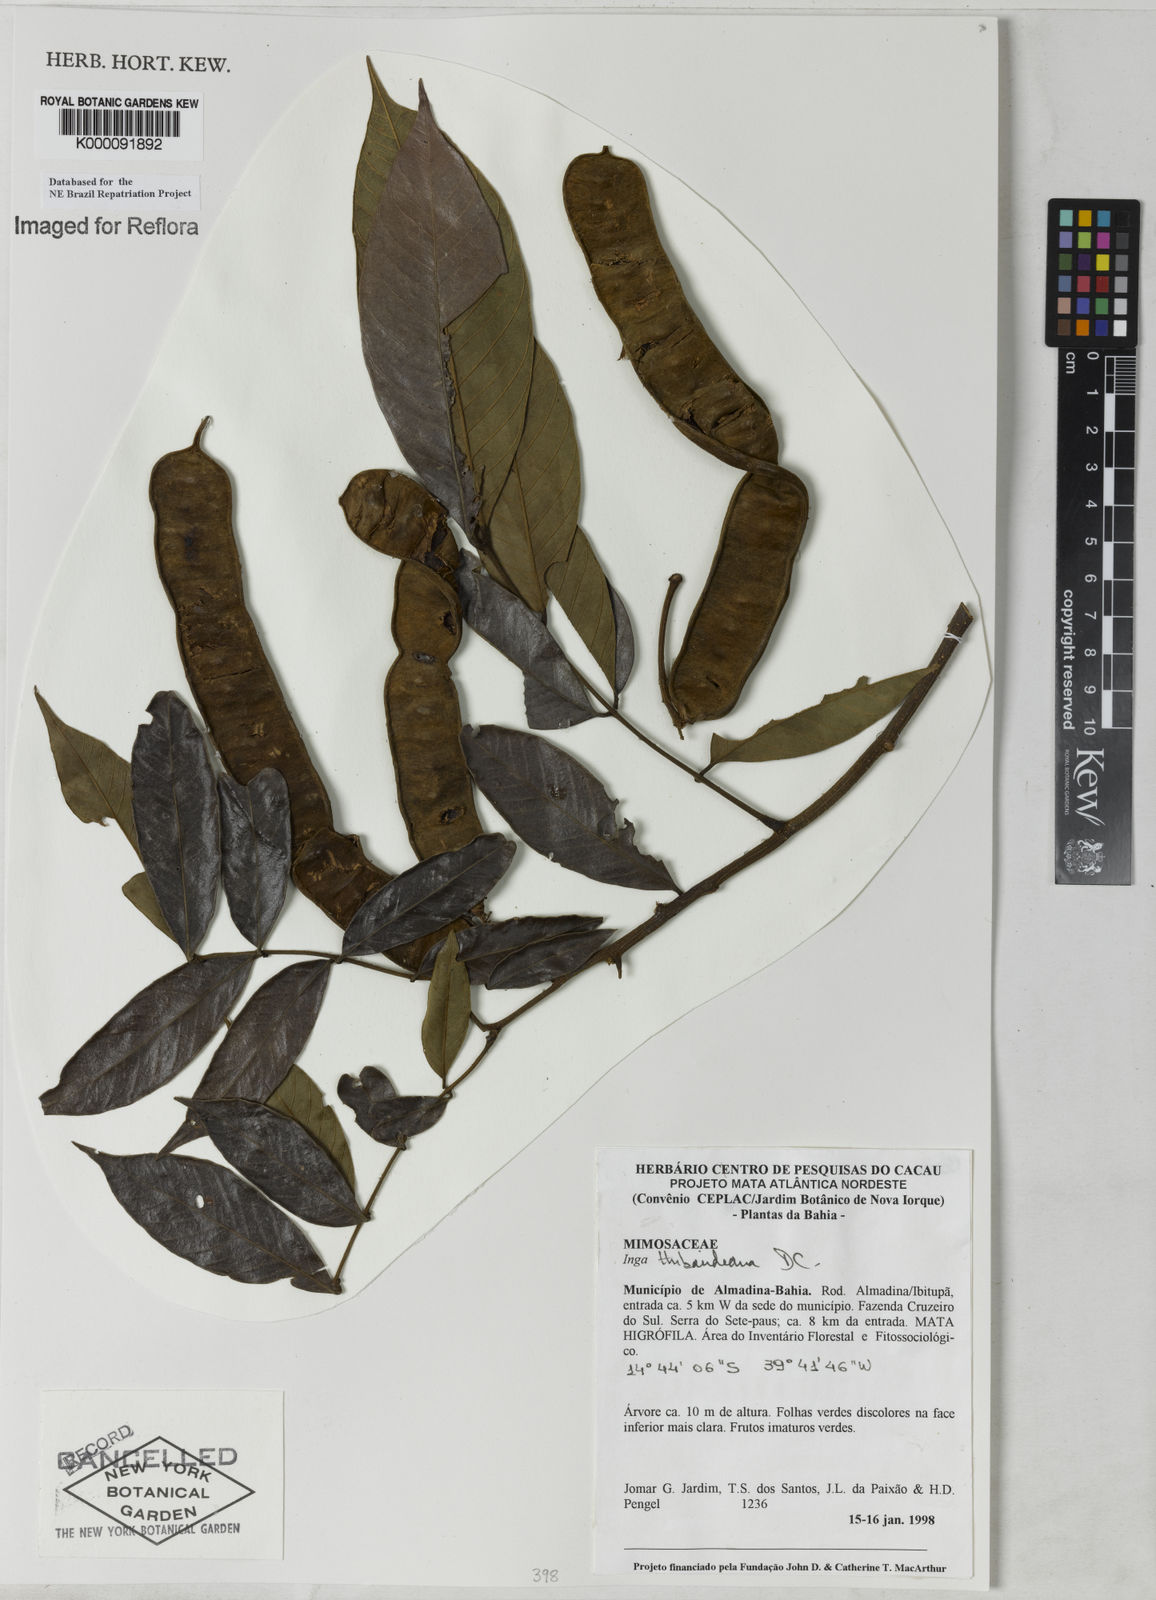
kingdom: Plantae
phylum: Tracheophyta
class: Magnoliopsida
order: Fabales
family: Fabaceae
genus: Inga
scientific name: Inga thibaudiana
